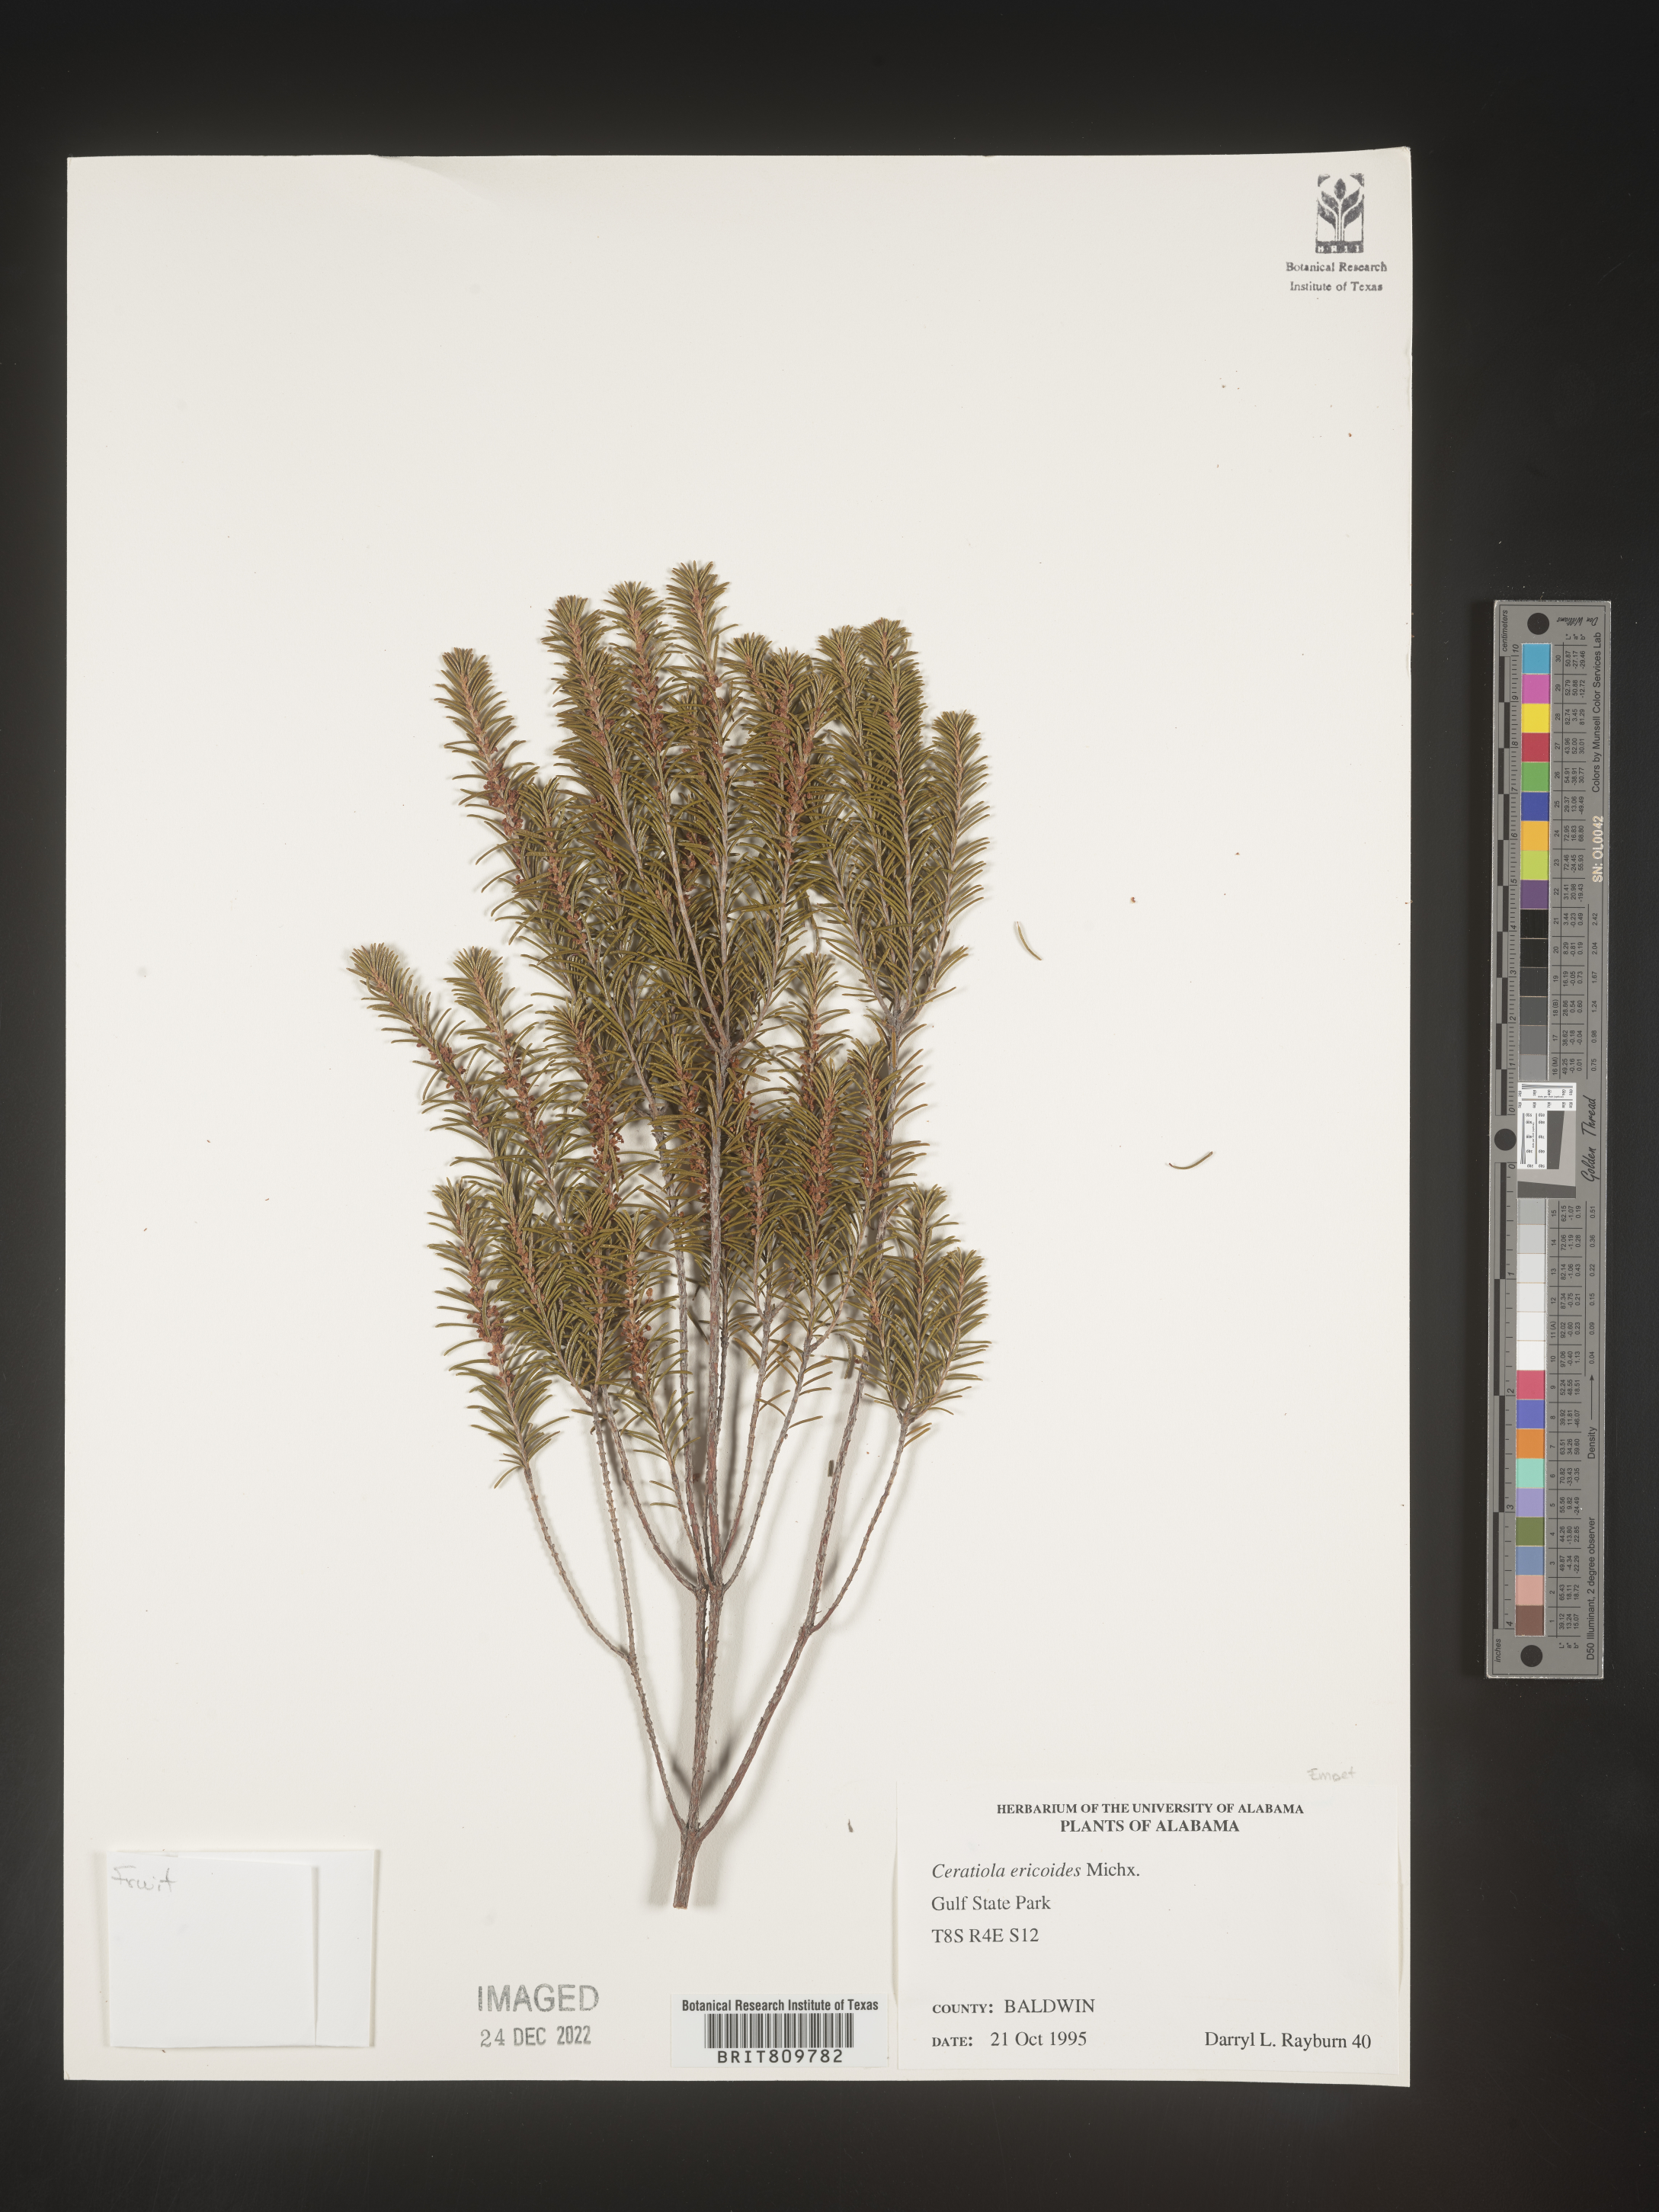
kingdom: Plantae
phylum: Tracheophyta
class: Magnoliopsida
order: Ericales
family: Ericaceae
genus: Ceratiola
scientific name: Ceratiola ericoides
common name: Sandhill-rosemary
